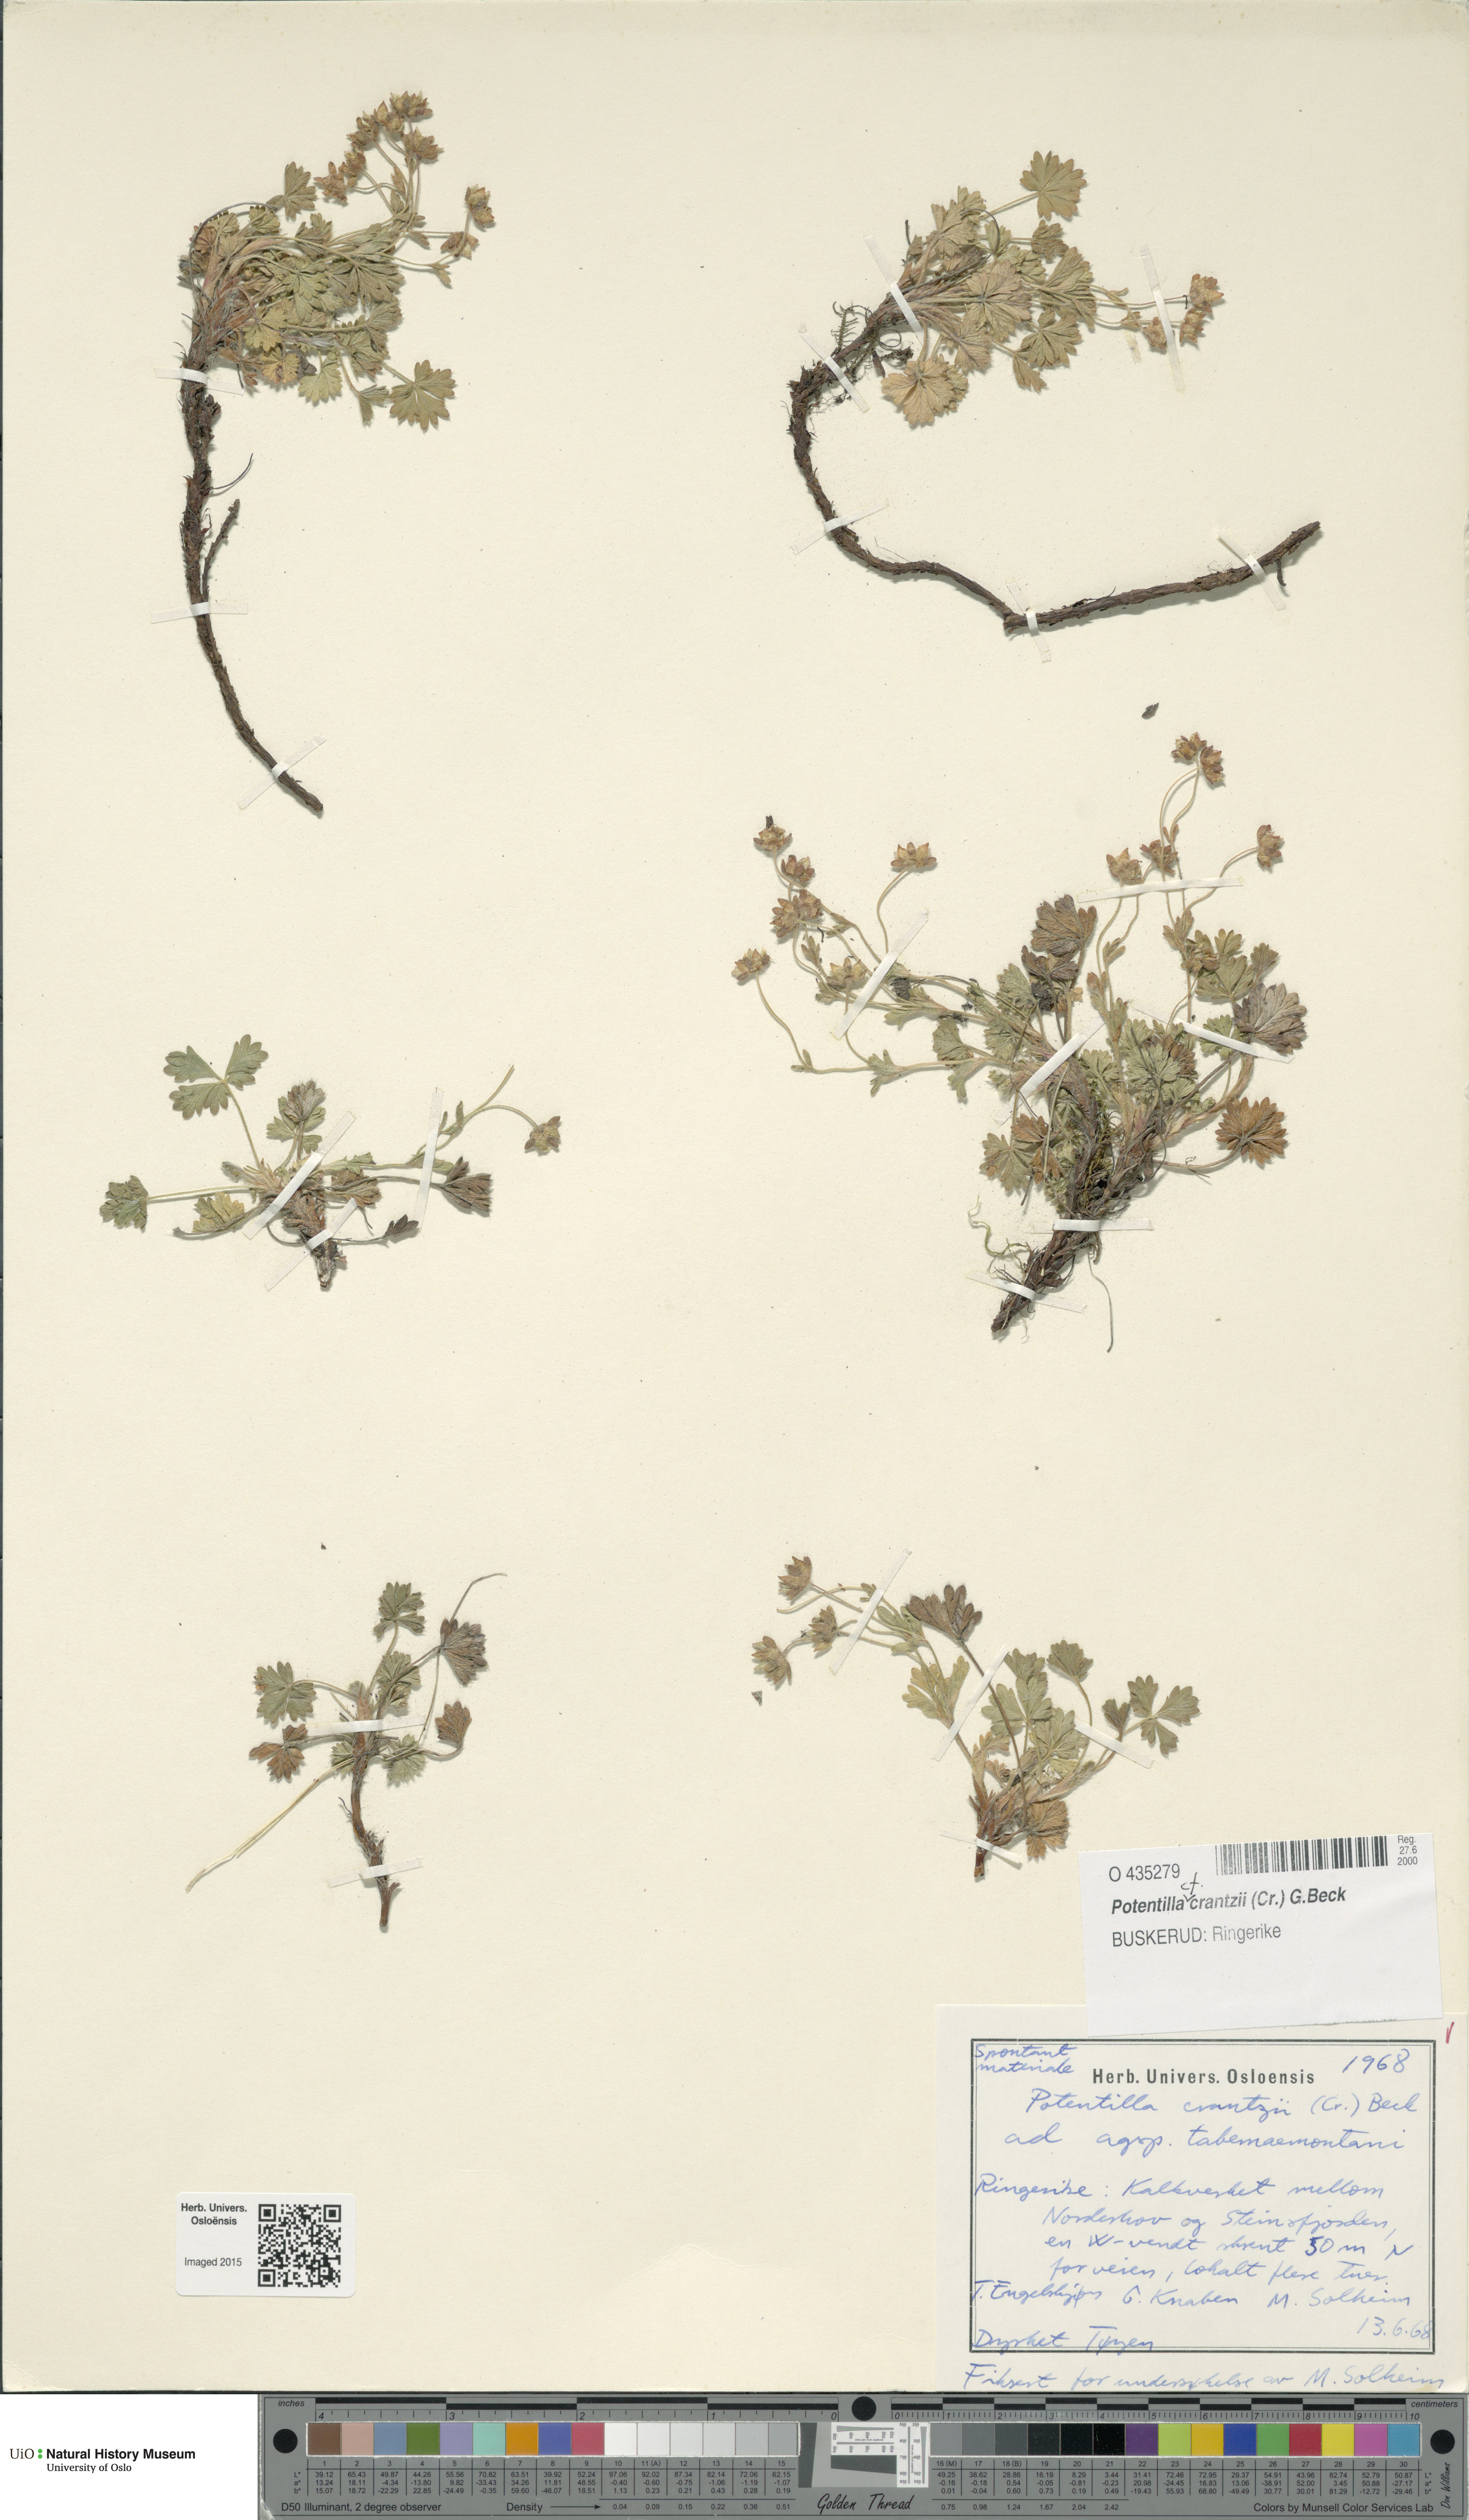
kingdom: Plantae
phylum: Tracheophyta
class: Magnoliopsida
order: Rosales
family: Rosaceae
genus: Potentilla
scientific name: Potentilla crantzii
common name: Alpine cinquefoil
